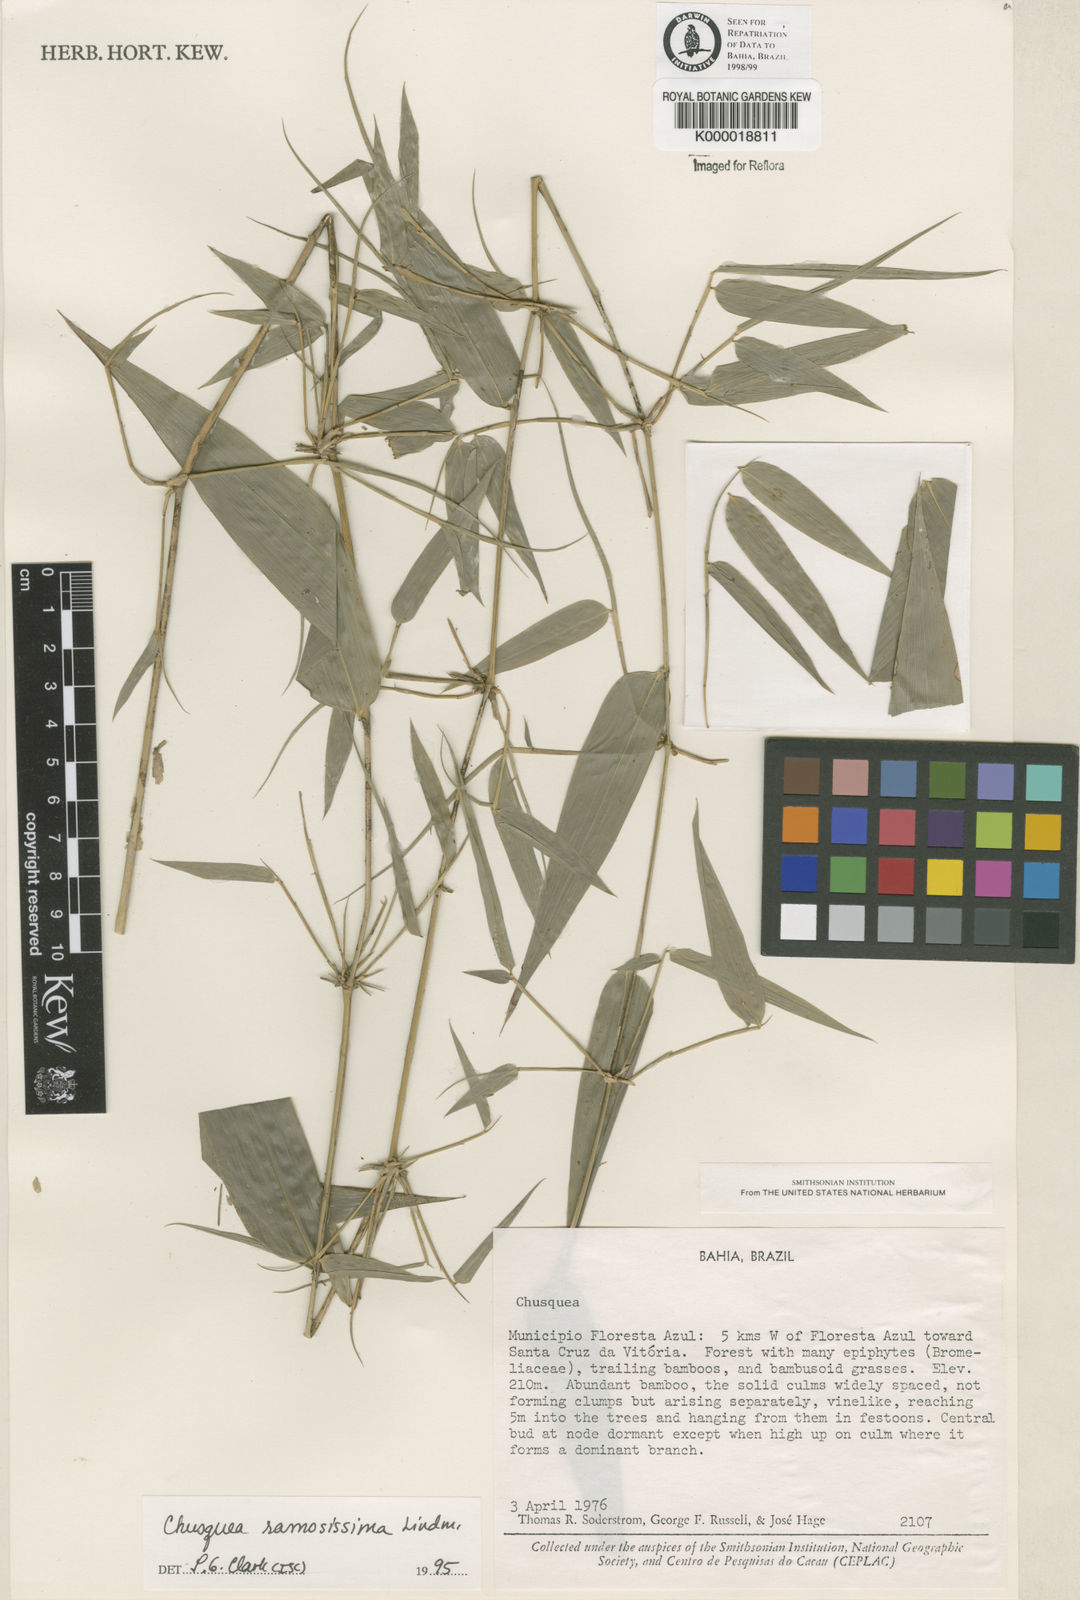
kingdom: Plantae
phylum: Tracheophyta
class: Liliopsida
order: Poales
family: Poaceae
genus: Chusquea
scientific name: Chusquea ramosissima
